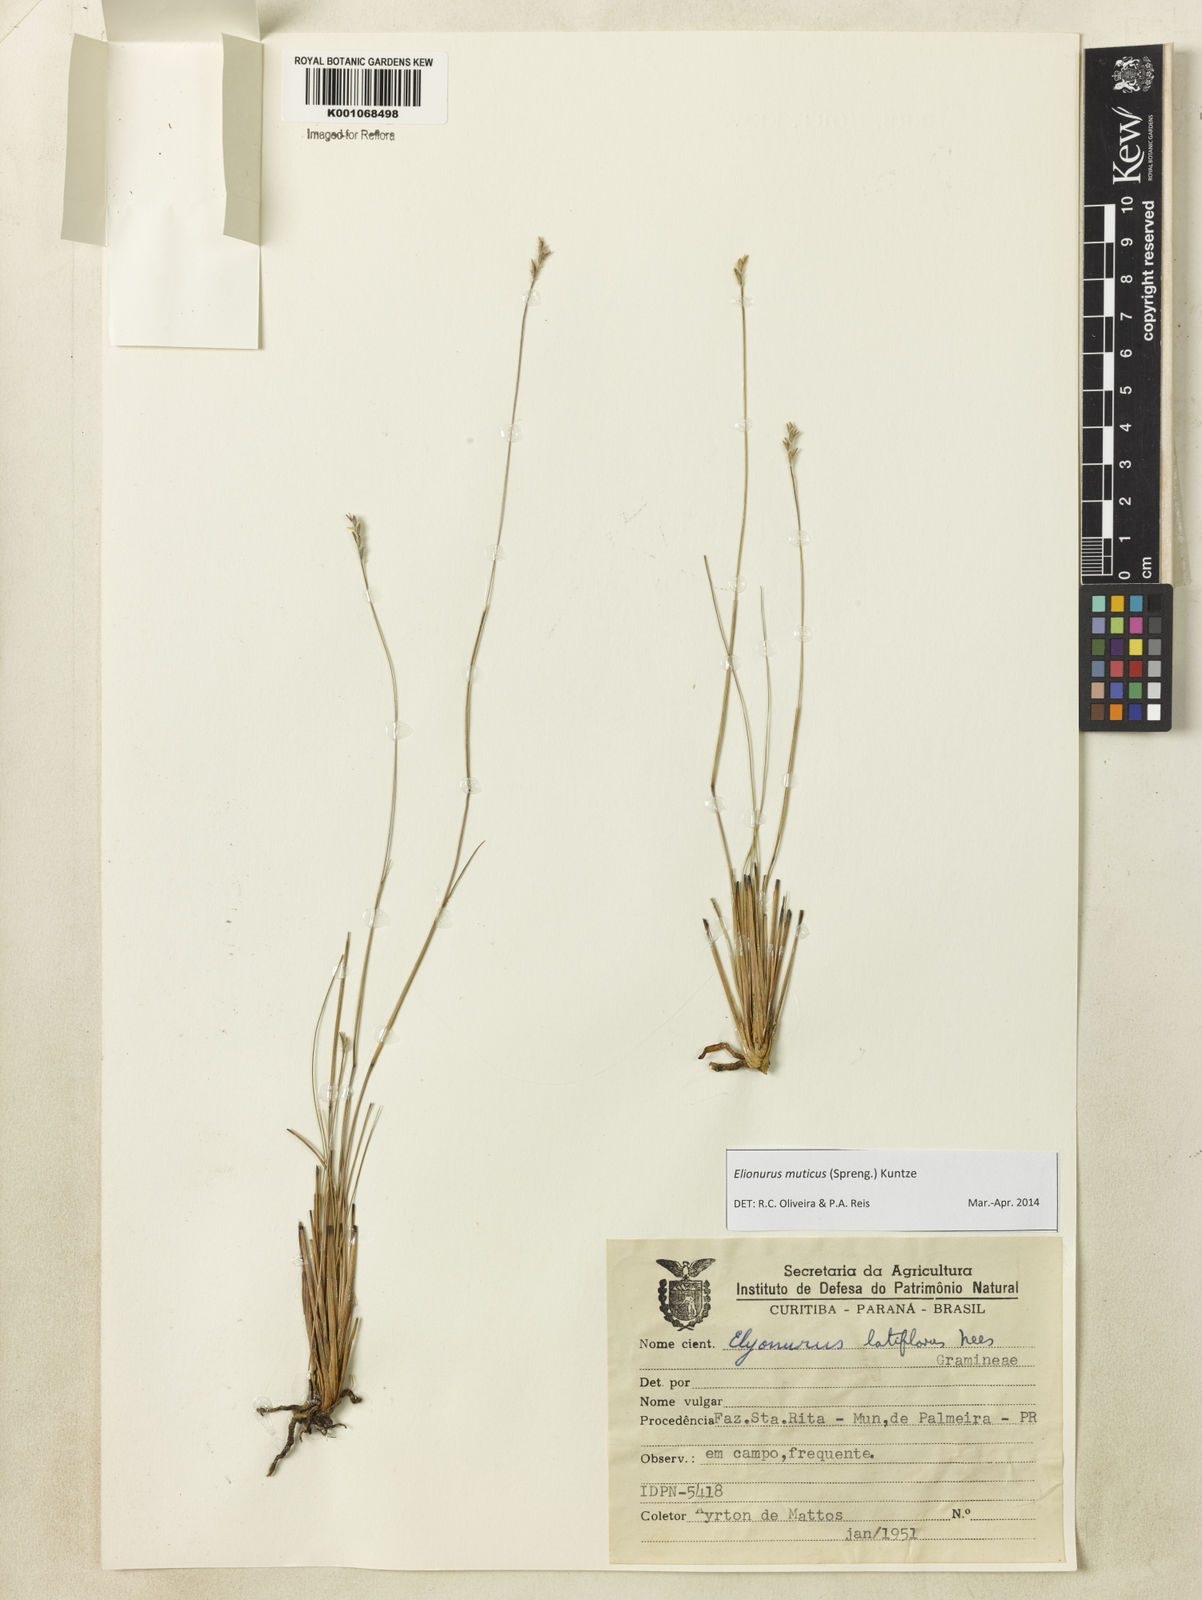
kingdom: Plantae
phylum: Tracheophyta
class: Liliopsida
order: Poales
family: Poaceae
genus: Elionurus
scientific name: Elionurus muticus
